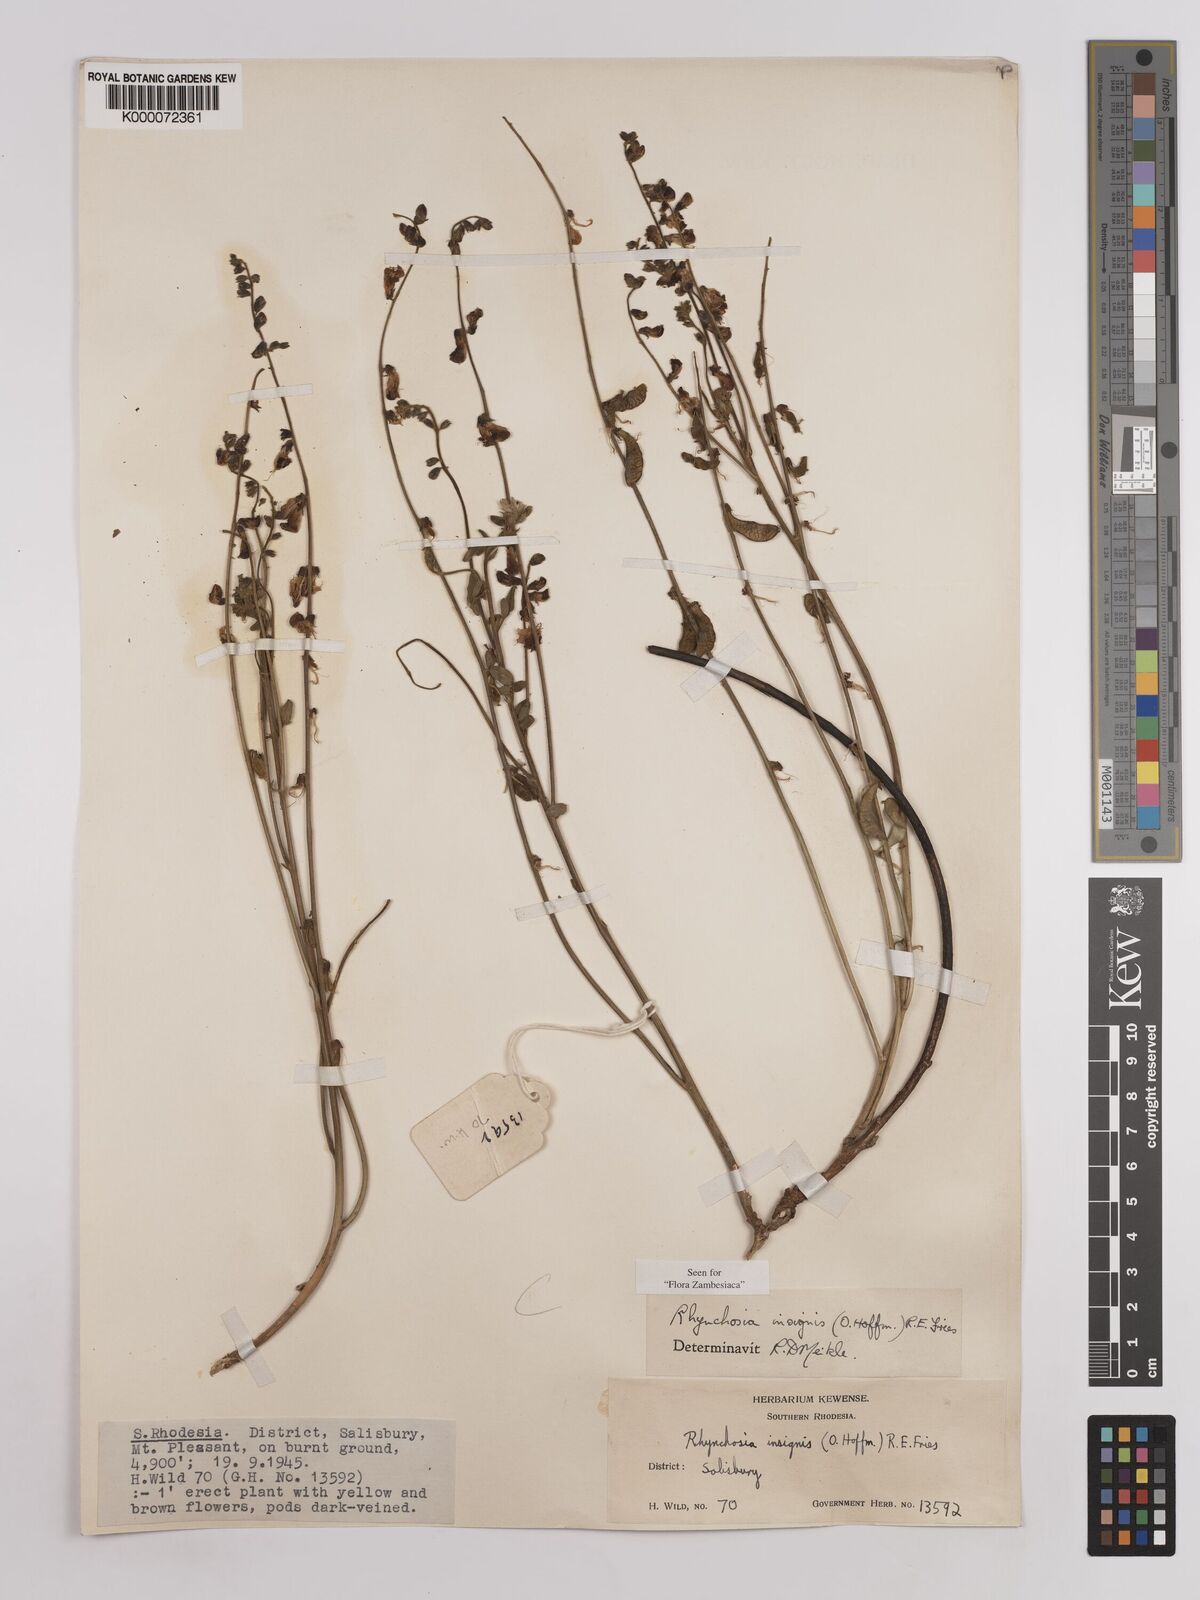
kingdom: Plantae
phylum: Tracheophyta
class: Magnoliopsida
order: Fabales
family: Fabaceae
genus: Rhynchosia
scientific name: Rhynchosia insignis
